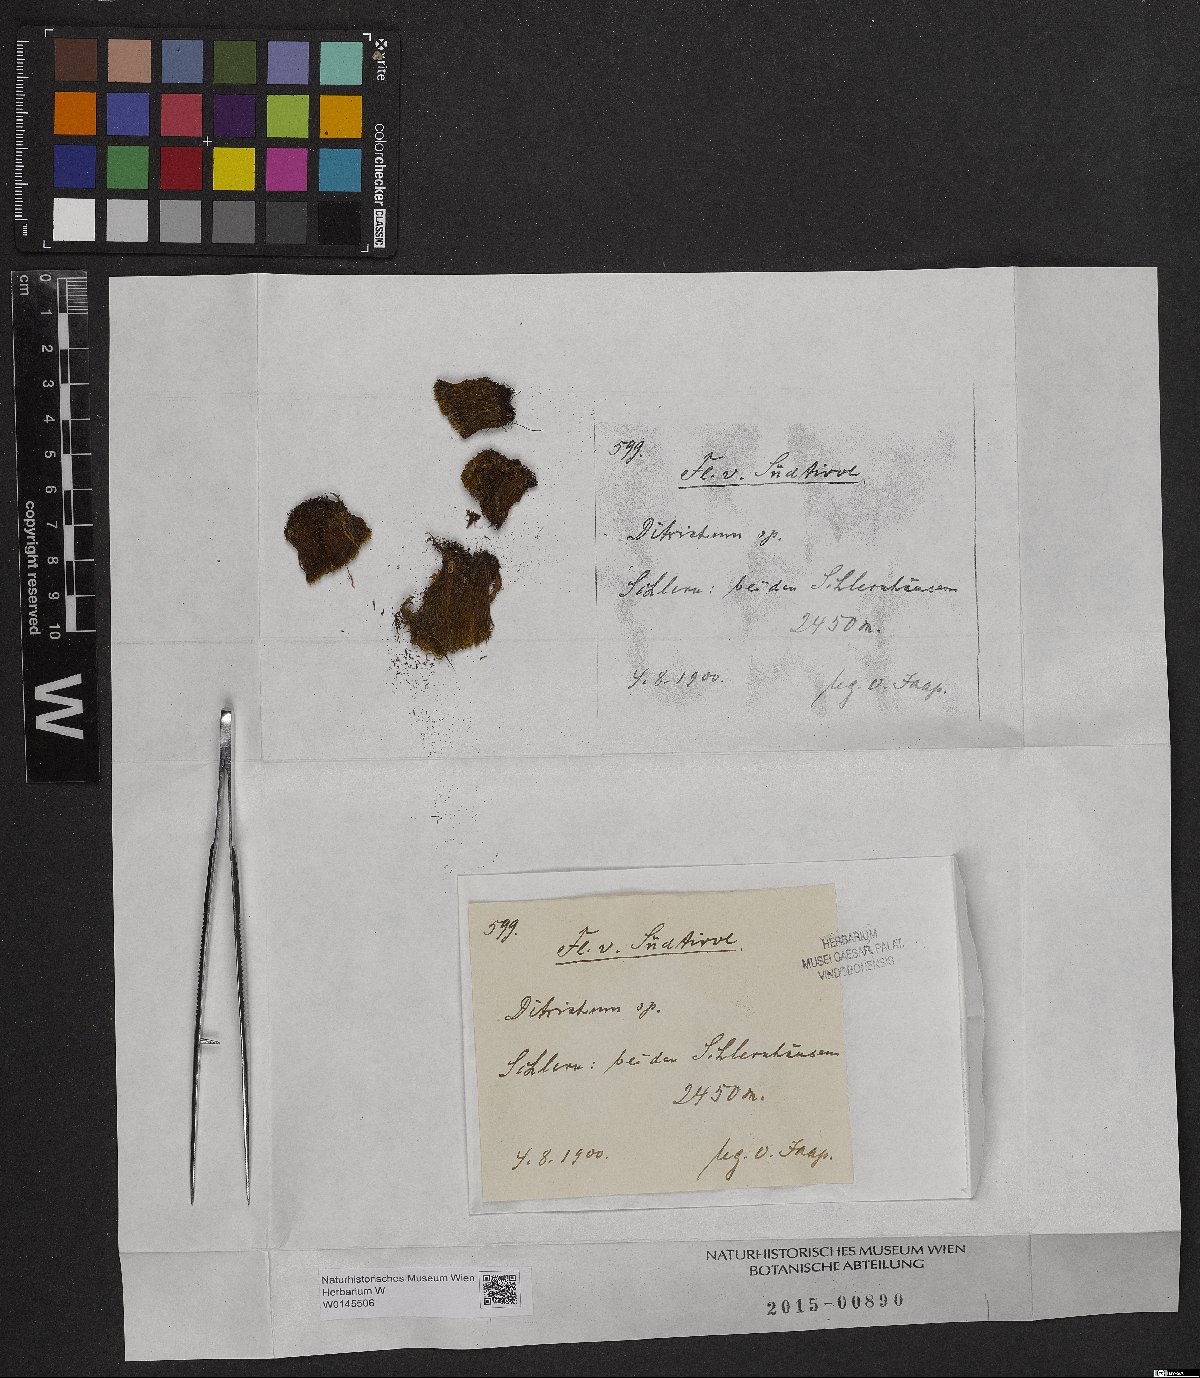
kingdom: Plantae
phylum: Bryophyta
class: Bryopsida
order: Dicranales
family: Ditrichaceae
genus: Ditrichum
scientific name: Ditrichum
